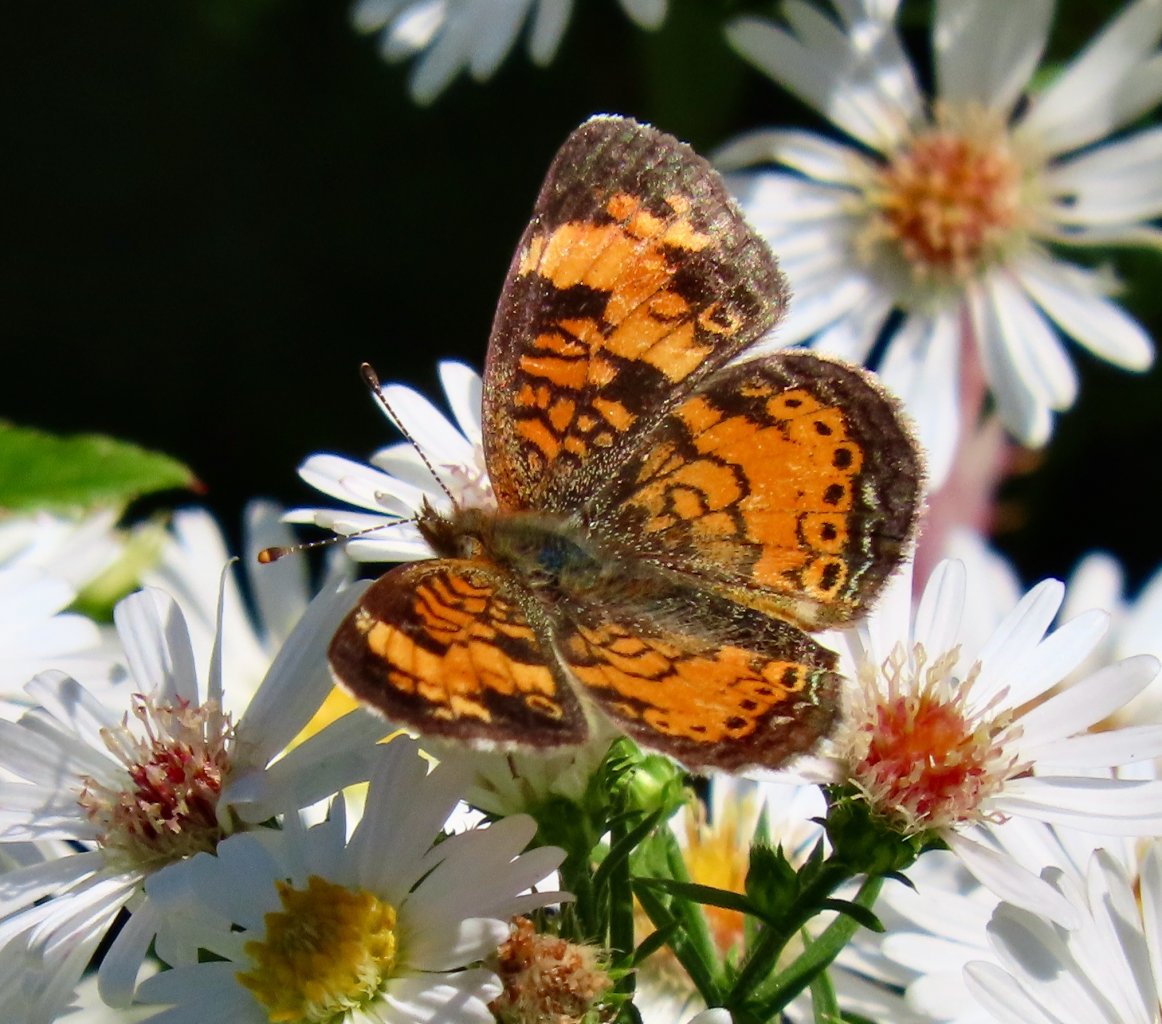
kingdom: Animalia
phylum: Arthropoda
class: Insecta
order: Lepidoptera
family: Nymphalidae
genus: Phyciodes
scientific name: Phyciodes tharos
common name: Pearl Crescent
